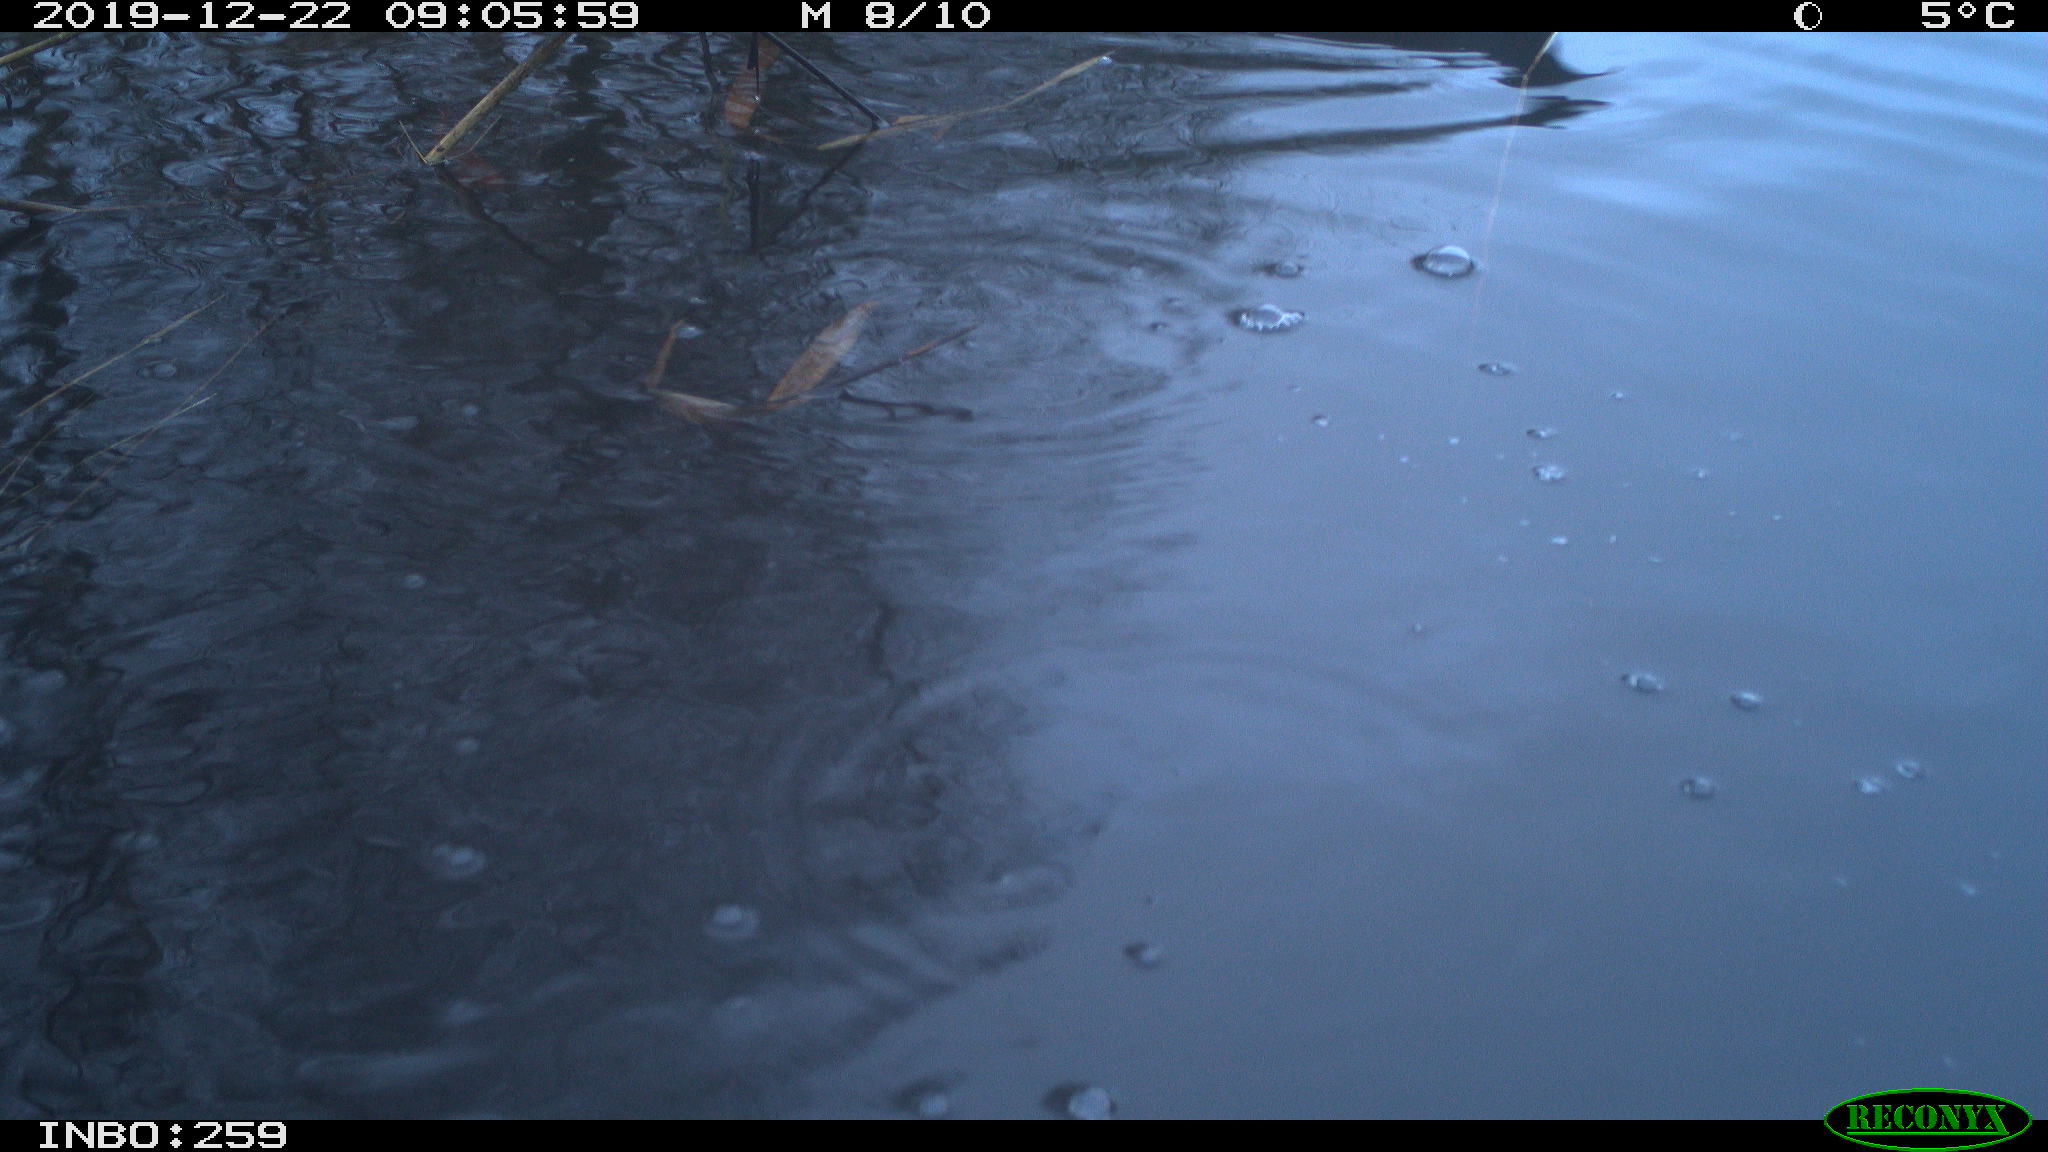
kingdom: Animalia
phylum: Chordata
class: Aves
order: Gruiformes
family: Rallidae
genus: Gallinula
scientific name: Gallinula chloropus
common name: Common moorhen
